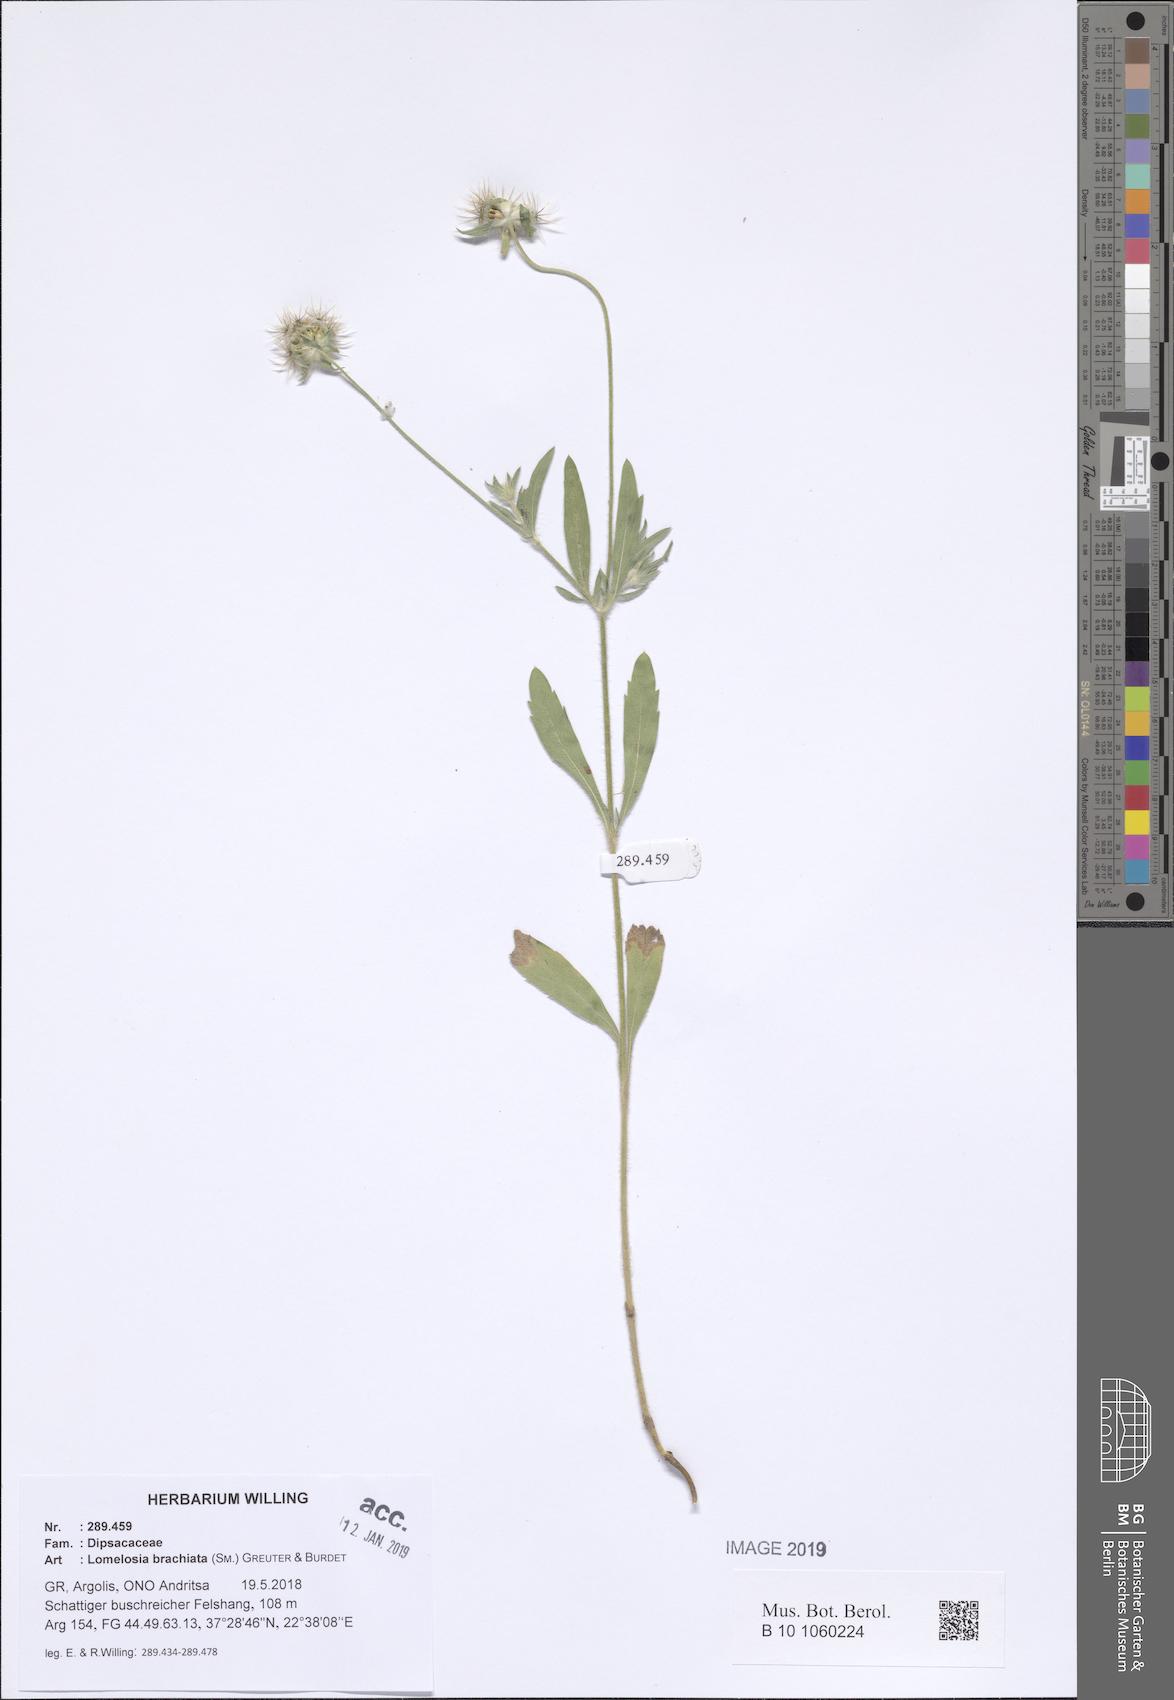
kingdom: Plantae
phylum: Tracheophyta
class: Magnoliopsida
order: Dipsacales
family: Caprifoliaceae
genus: Lomelosia
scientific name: Lomelosia brachiata
